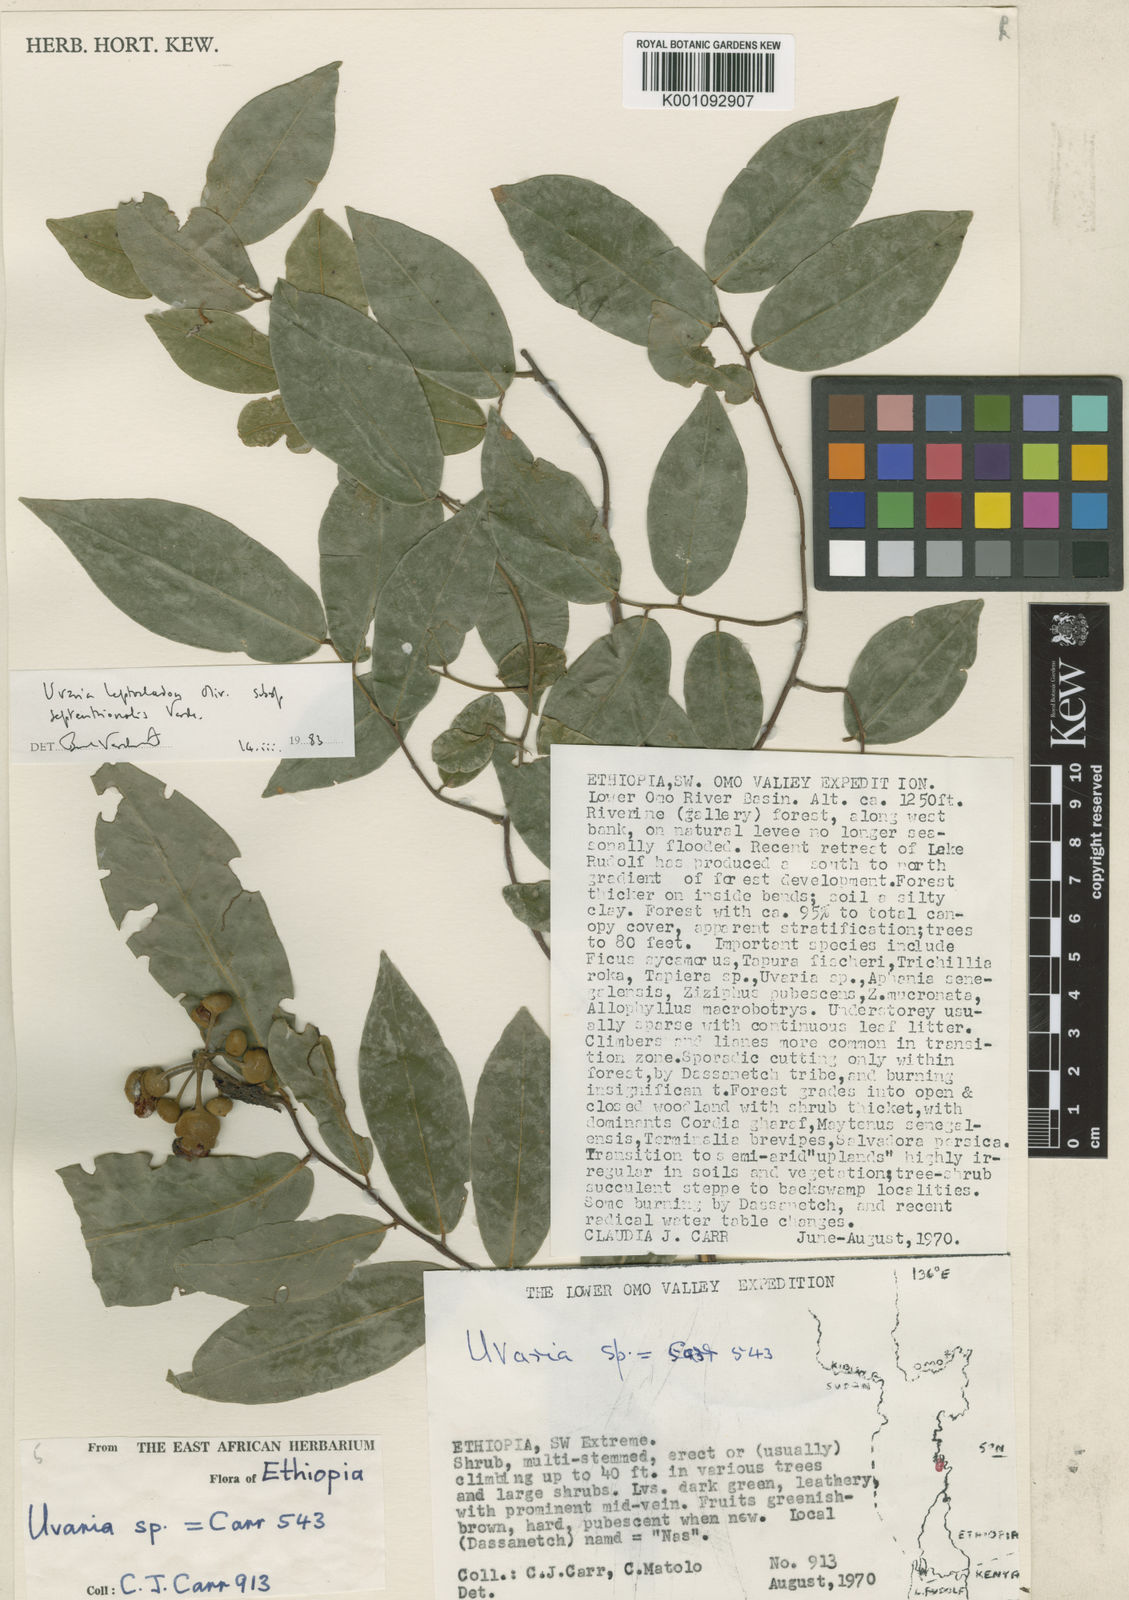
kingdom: Plantae
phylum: Tracheophyta
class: Magnoliopsida
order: Magnoliales
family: Annonaceae
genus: Uvaria
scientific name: Uvaria leptocladon
